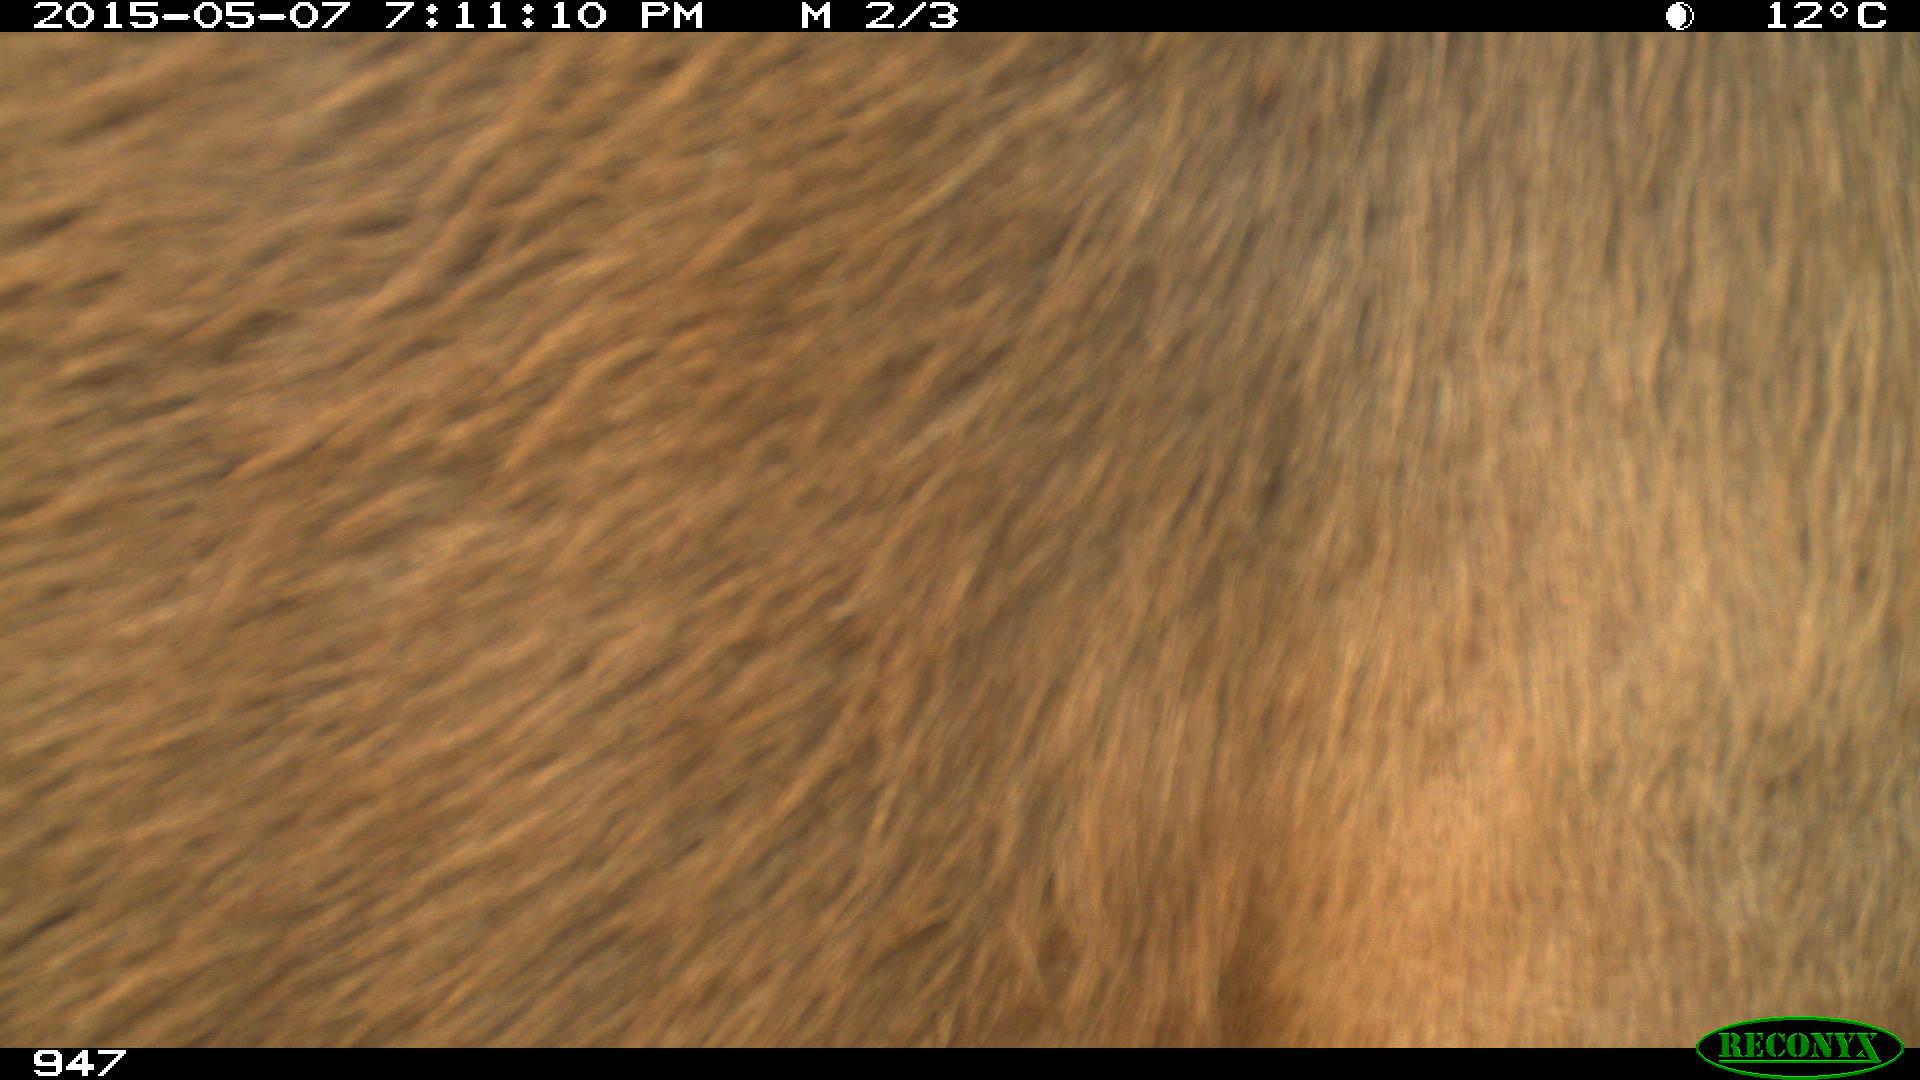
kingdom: Animalia
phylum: Chordata
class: Mammalia
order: Perissodactyla
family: Equidae
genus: Equus
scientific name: Equus caballus
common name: Horse
